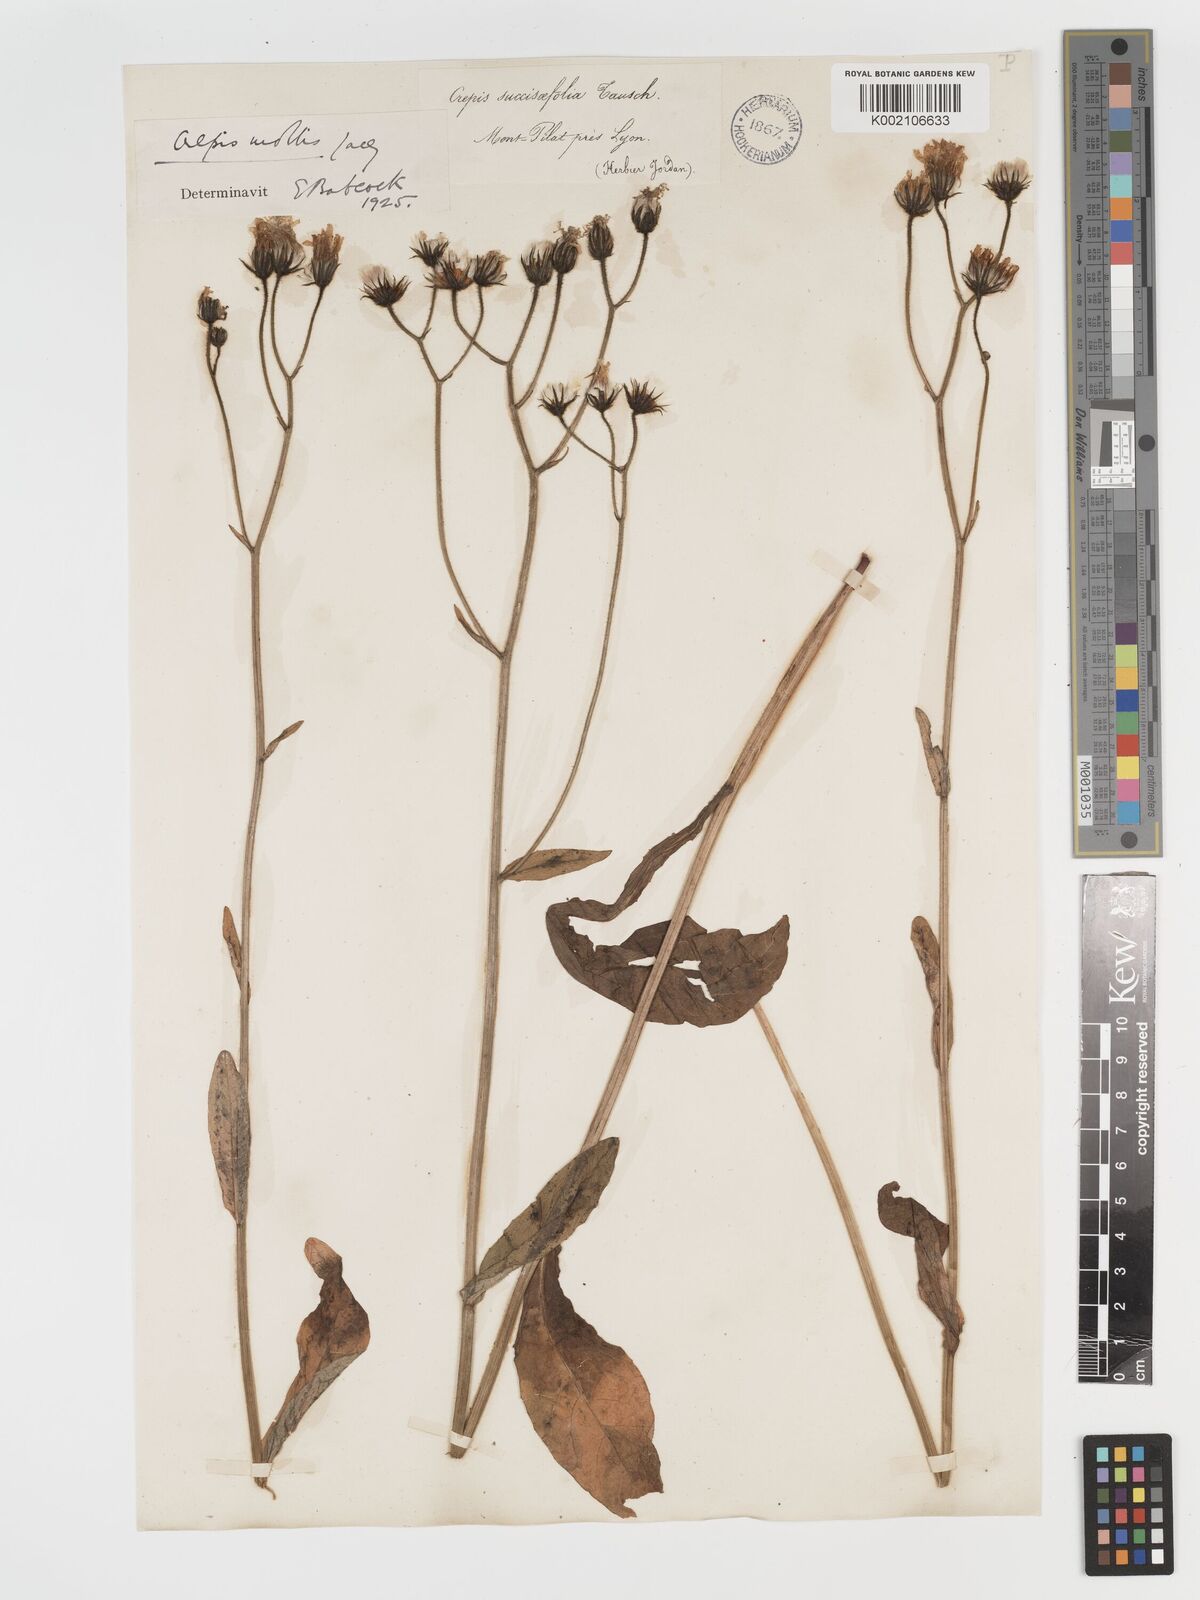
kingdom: Plantae
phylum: Tracheophyta
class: Magnoliopsida
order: Asterales
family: Asteraceae
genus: Crepis
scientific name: Crepis mollis
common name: Northern hawk's-beard
